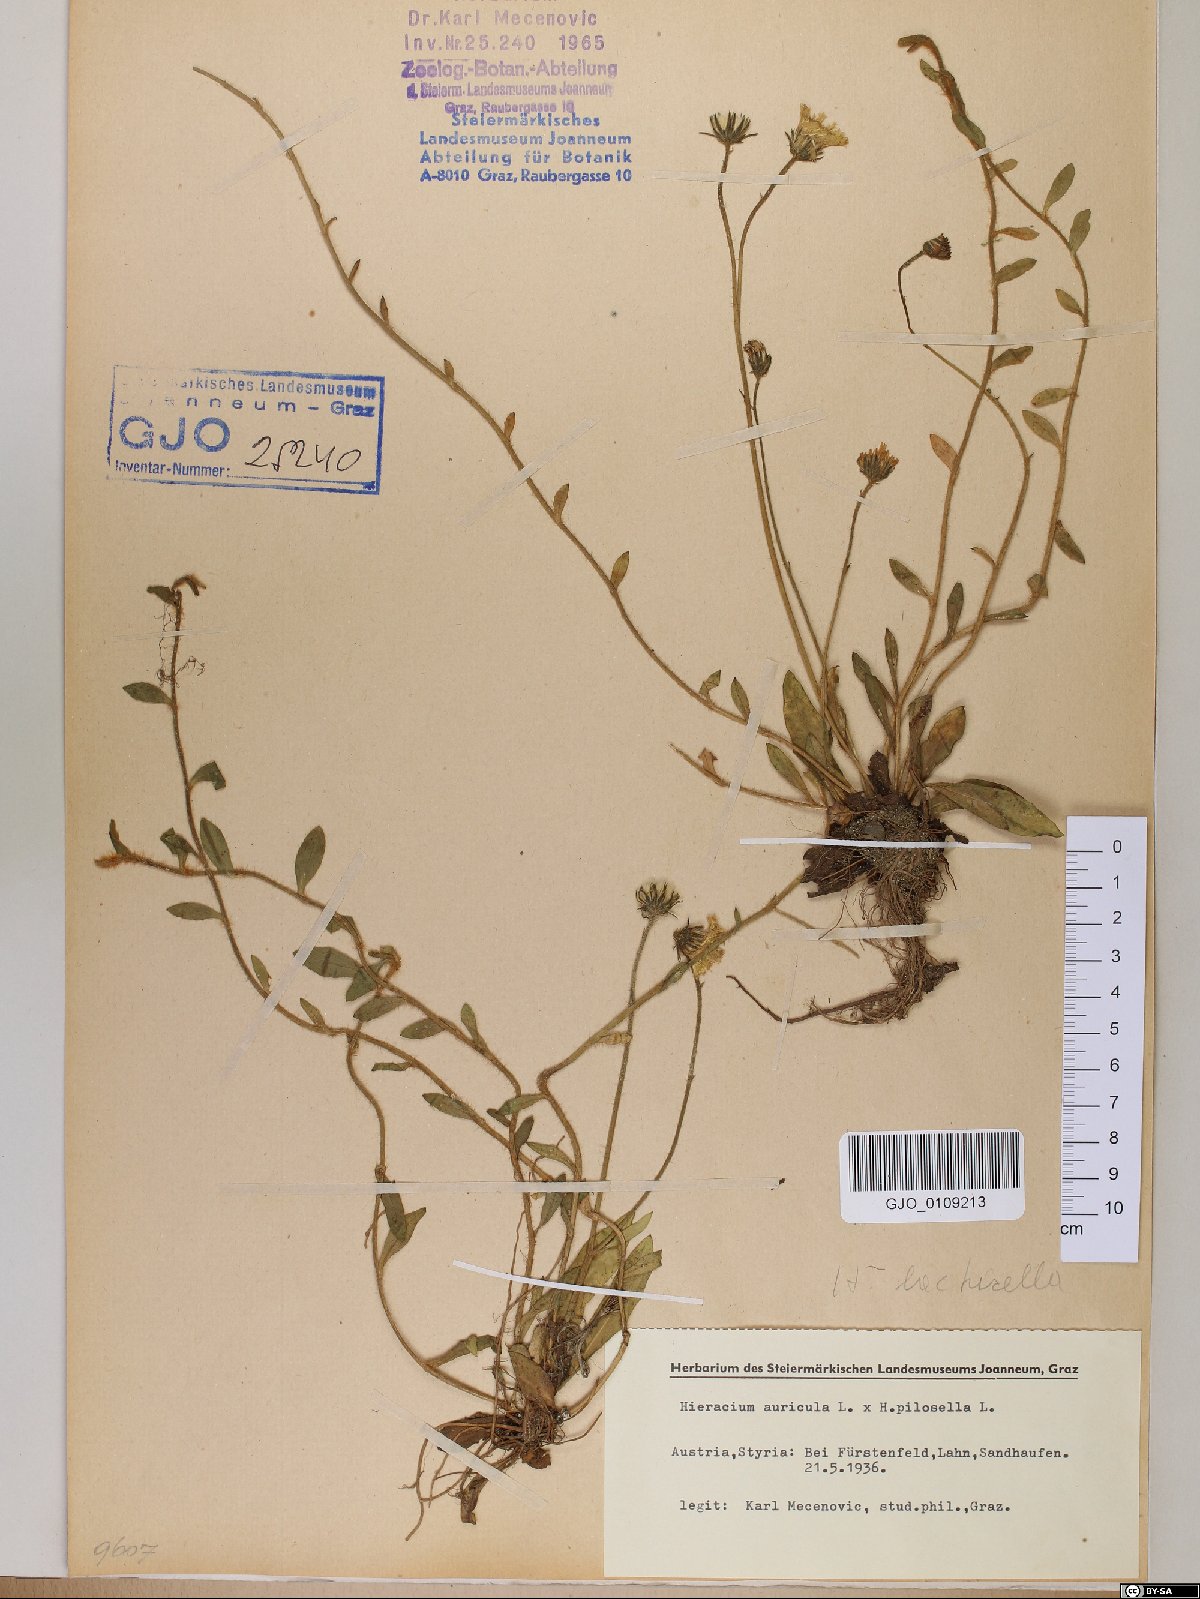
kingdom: Plantae
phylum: Tracheophyta
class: Magnoliopsida
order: Asterales
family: Asteraceae
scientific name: Asteraceae
